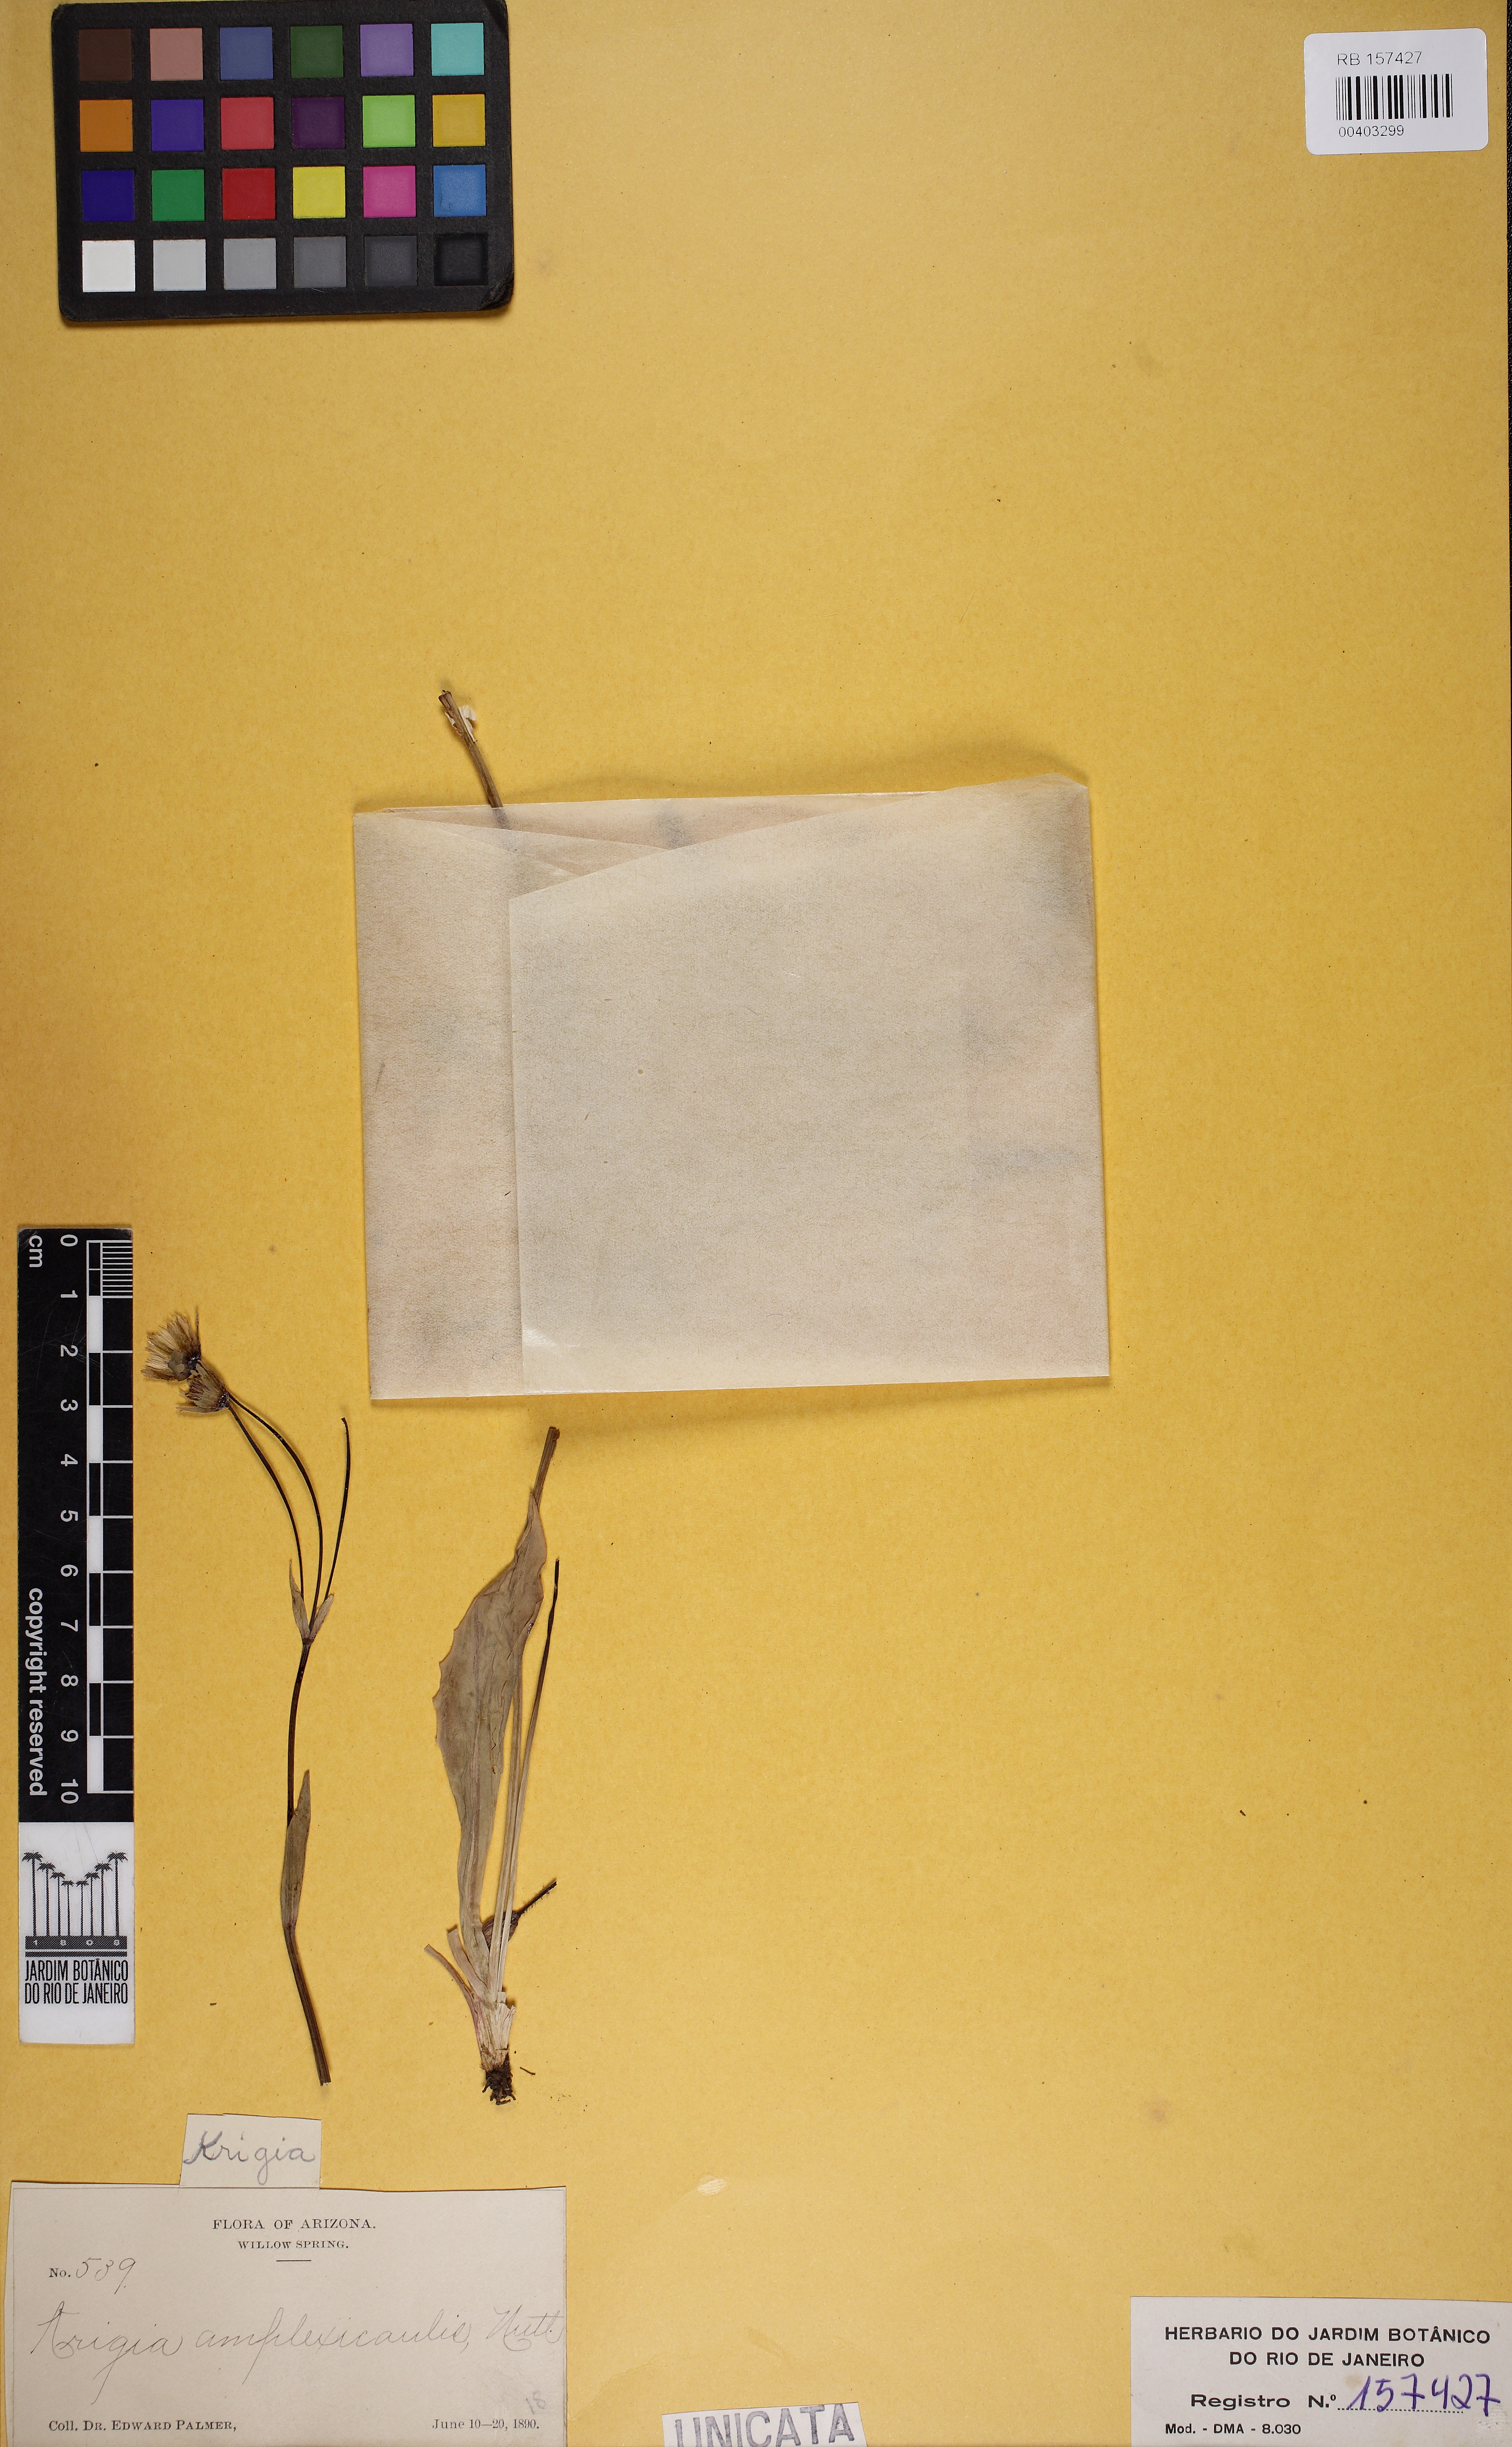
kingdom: Plantae
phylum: Tracheophyta
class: Magnoliopsida
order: Asterales
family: Asteraceae
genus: Krigia
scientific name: Krigia biflora
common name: Orange dwarf-dandelion
